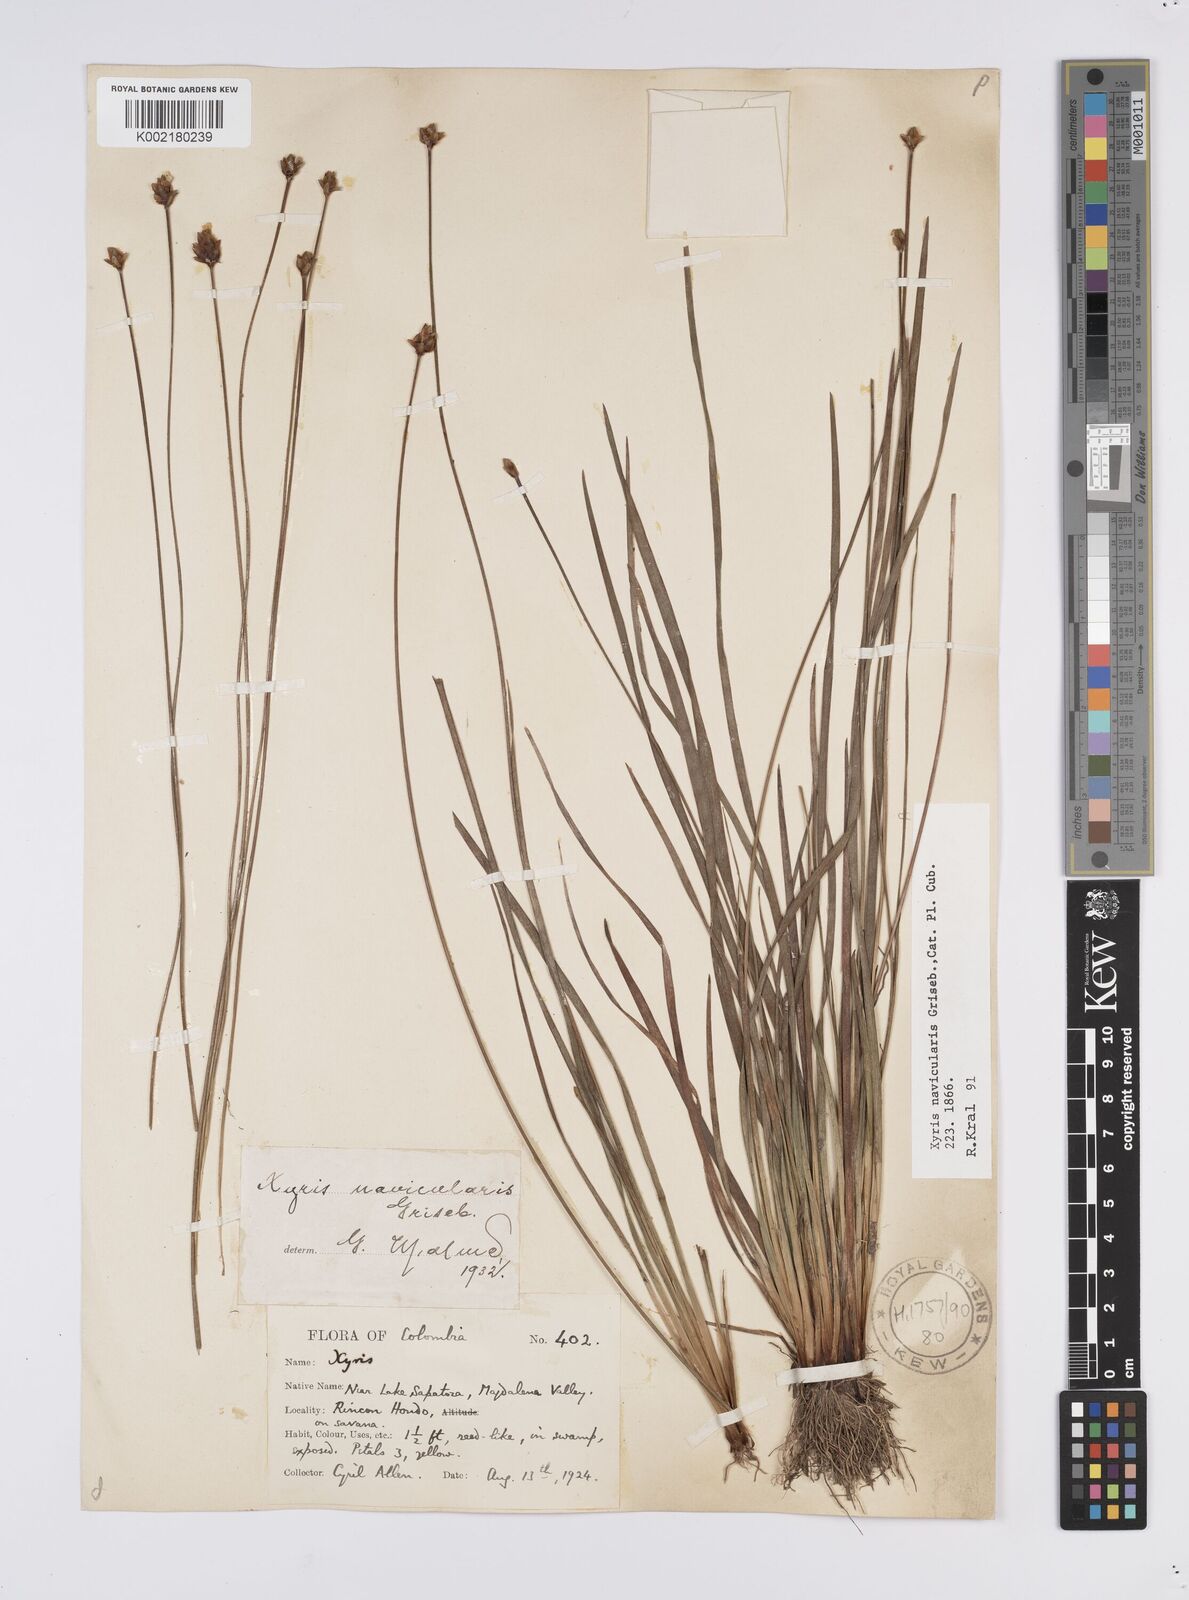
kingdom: Plantae
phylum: Tracheophyta
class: Liliopsida
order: Poales
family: Xyridaceae
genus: Xyris
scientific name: Xyris navicularis
